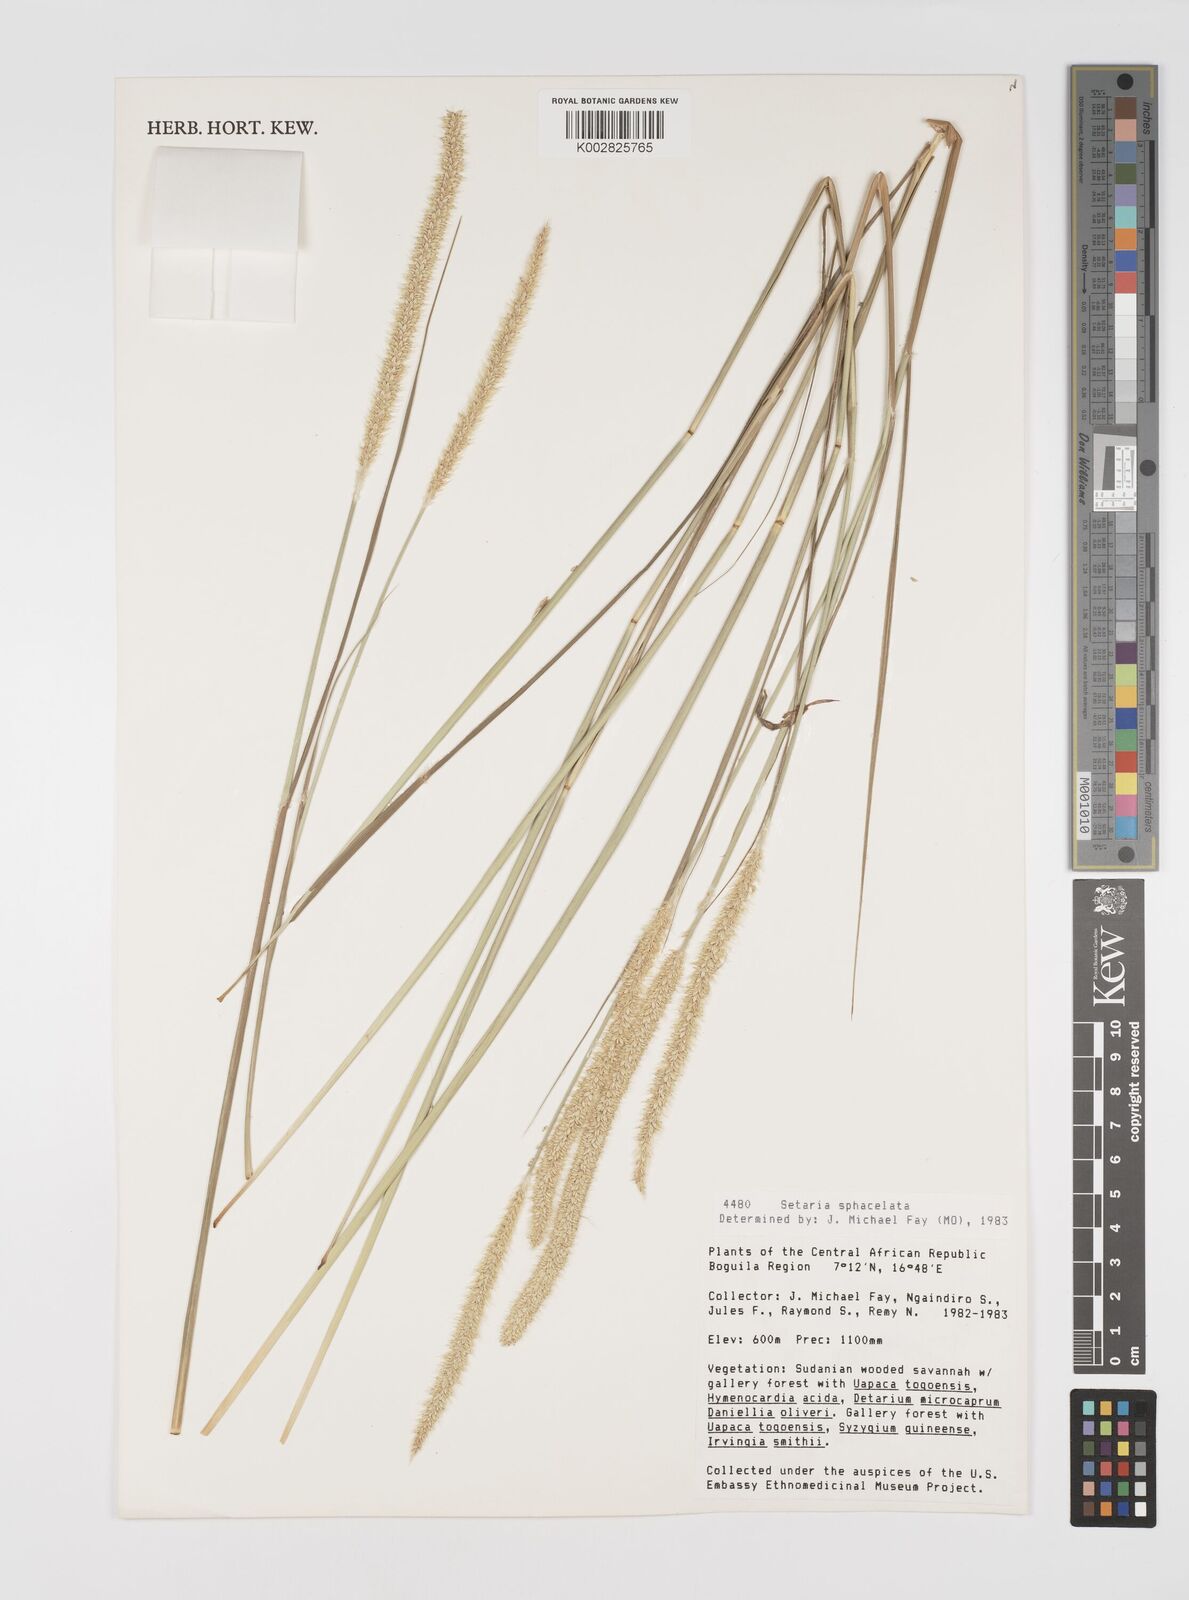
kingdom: Plantae
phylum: Tracheophyta
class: Liliopsida
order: Poales
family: Poaceae
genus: Setaria
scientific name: Setaria sphacelata
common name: African bristlegrass
